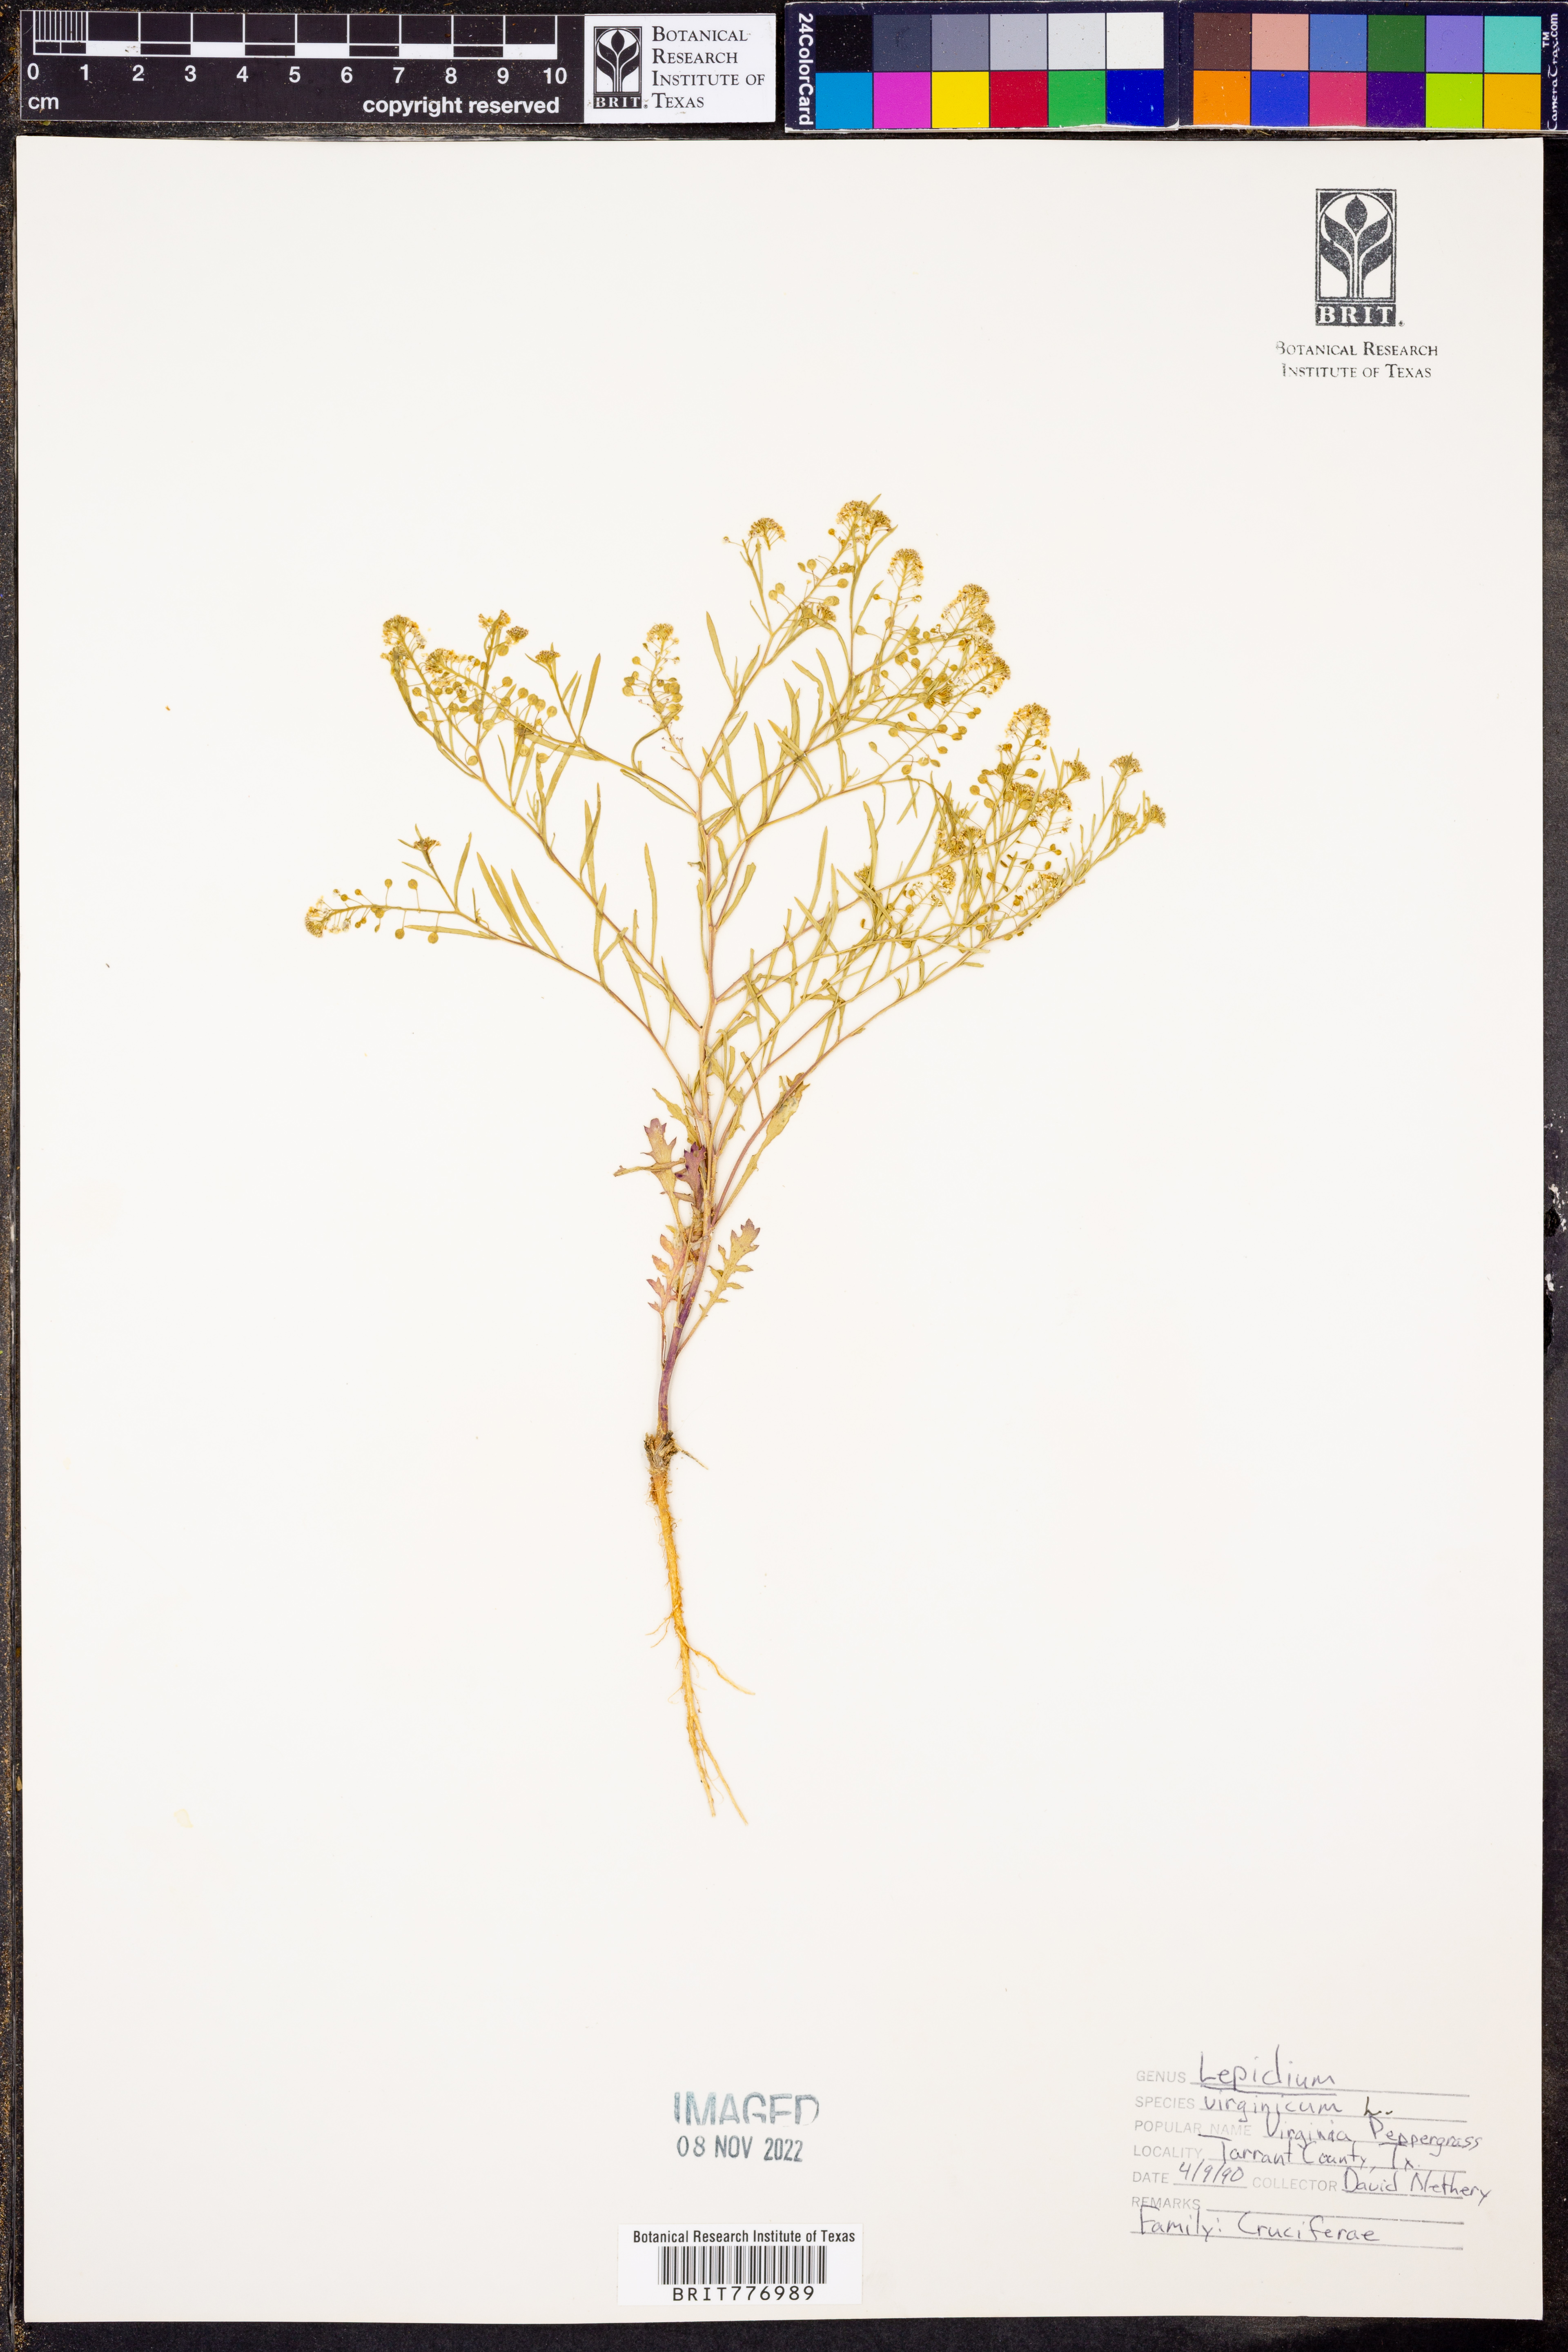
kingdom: Plantae
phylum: Tracheophyta
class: Magnoliopsida
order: Brassicales
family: Brassicaceae
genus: Lepidium
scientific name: Lepidium virginicum
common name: Least pepperwort
